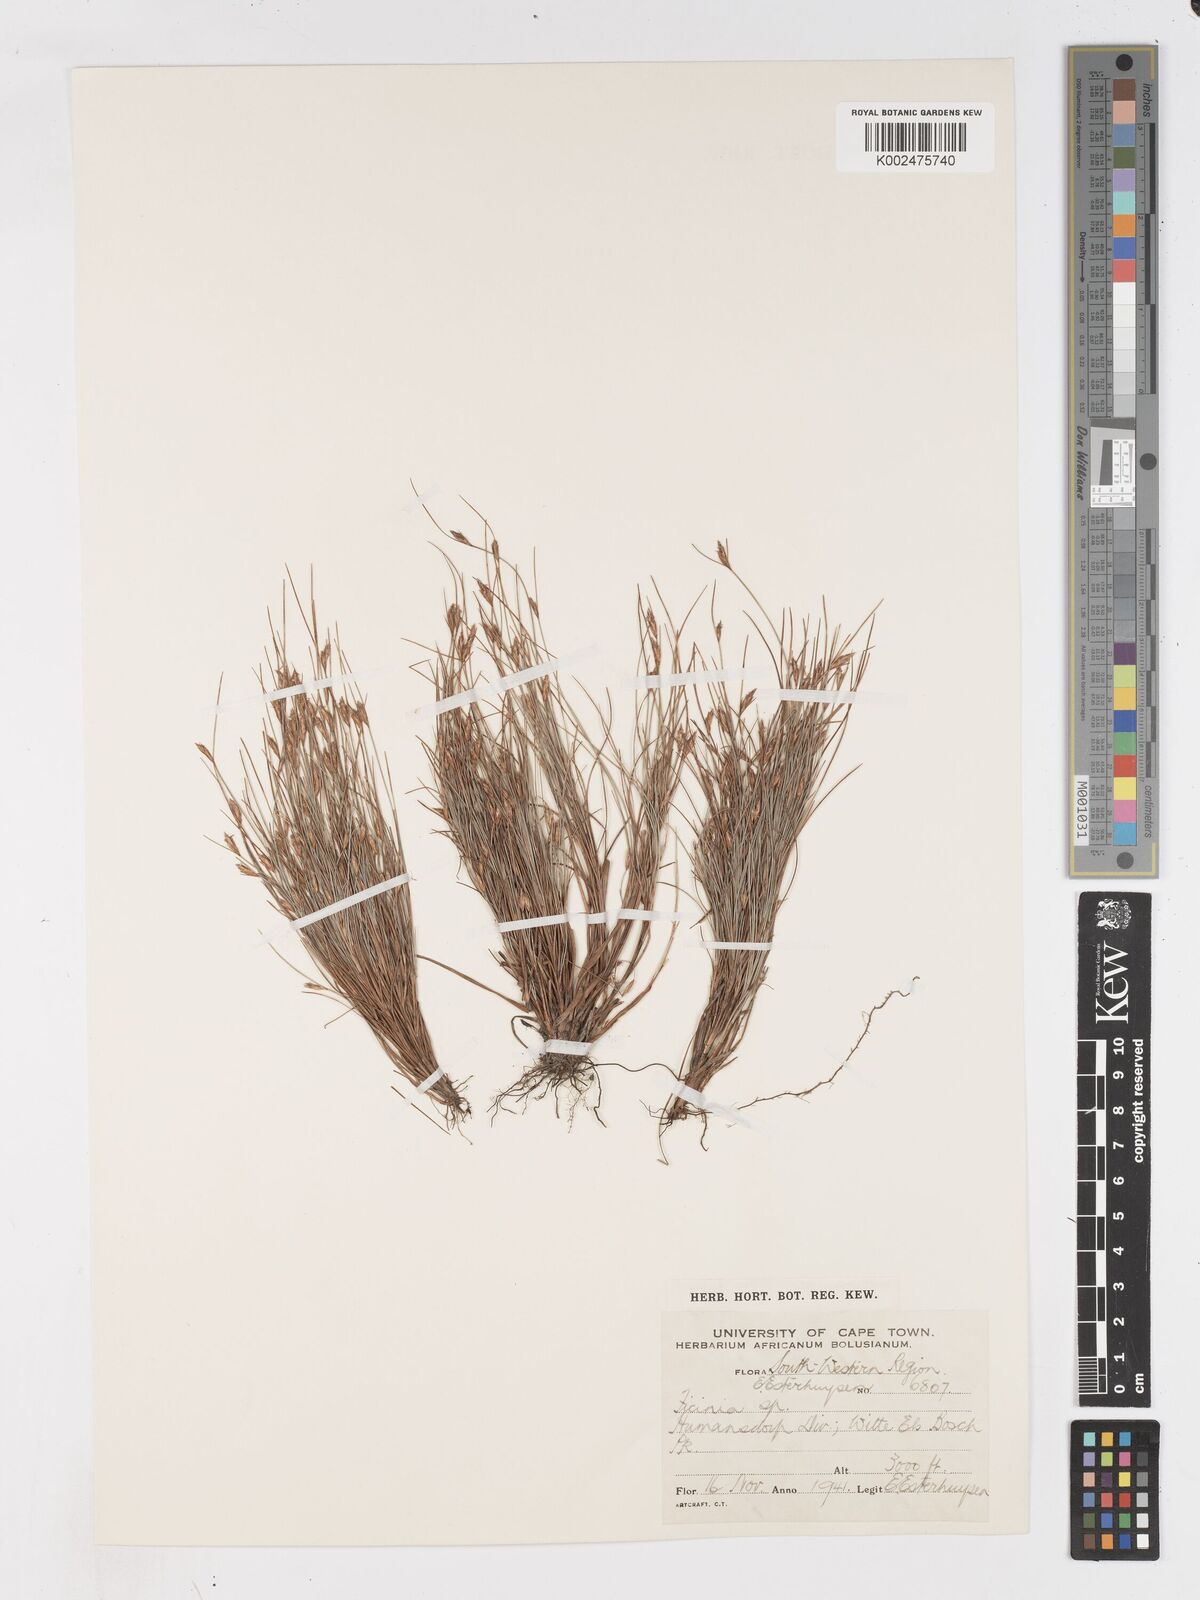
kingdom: Plantae
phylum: Tracheophyta
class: Liliopsida
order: Poales
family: Cyperaceae
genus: Ficinia
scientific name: Ficinia trichodes
